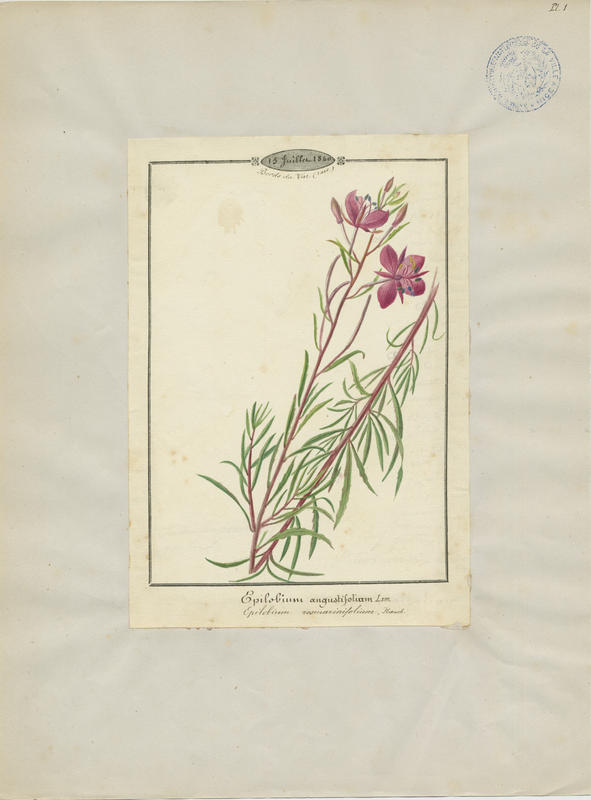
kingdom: Plantae
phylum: Tracheophyta
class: Magnoliopsida
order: Myrtales
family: Onagraceae
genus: Chamaenerion
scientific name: Chamaenerion angustifolium
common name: Fireweed
